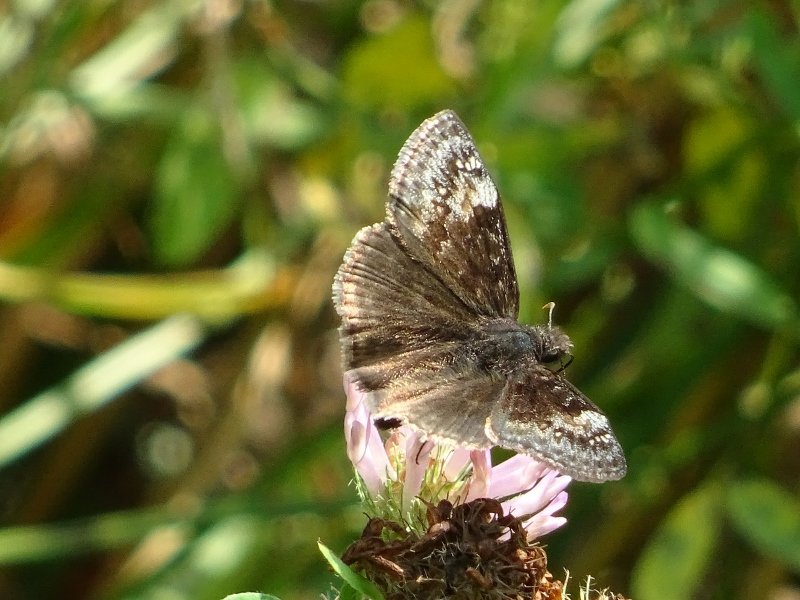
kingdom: Animalia
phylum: Arthropoda
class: Insecta
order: Lepidoptera
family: Hesperiidae
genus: Gesta
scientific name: Gesta
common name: Wild Indigo Duskywing
